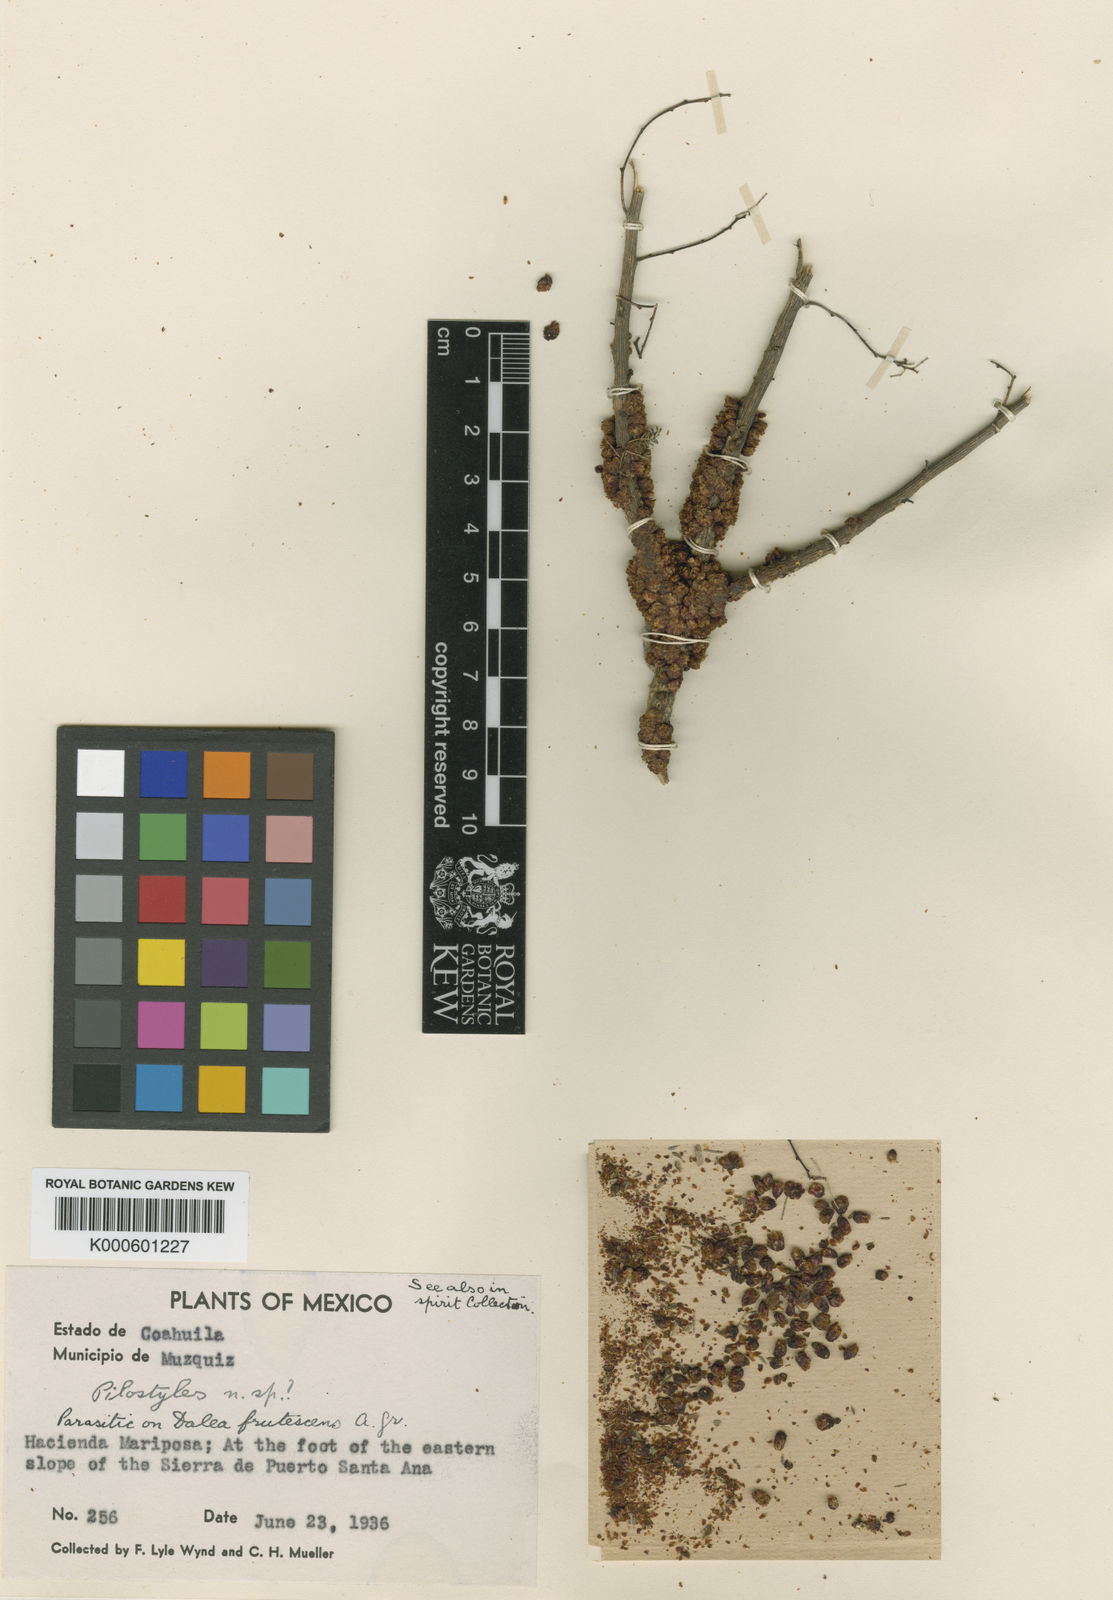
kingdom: Plantae
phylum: Tracheophyta
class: Magnoliopsida
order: Cucurbitales
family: Apodanthaceae
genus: Pilostyles
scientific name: Pilostyles
